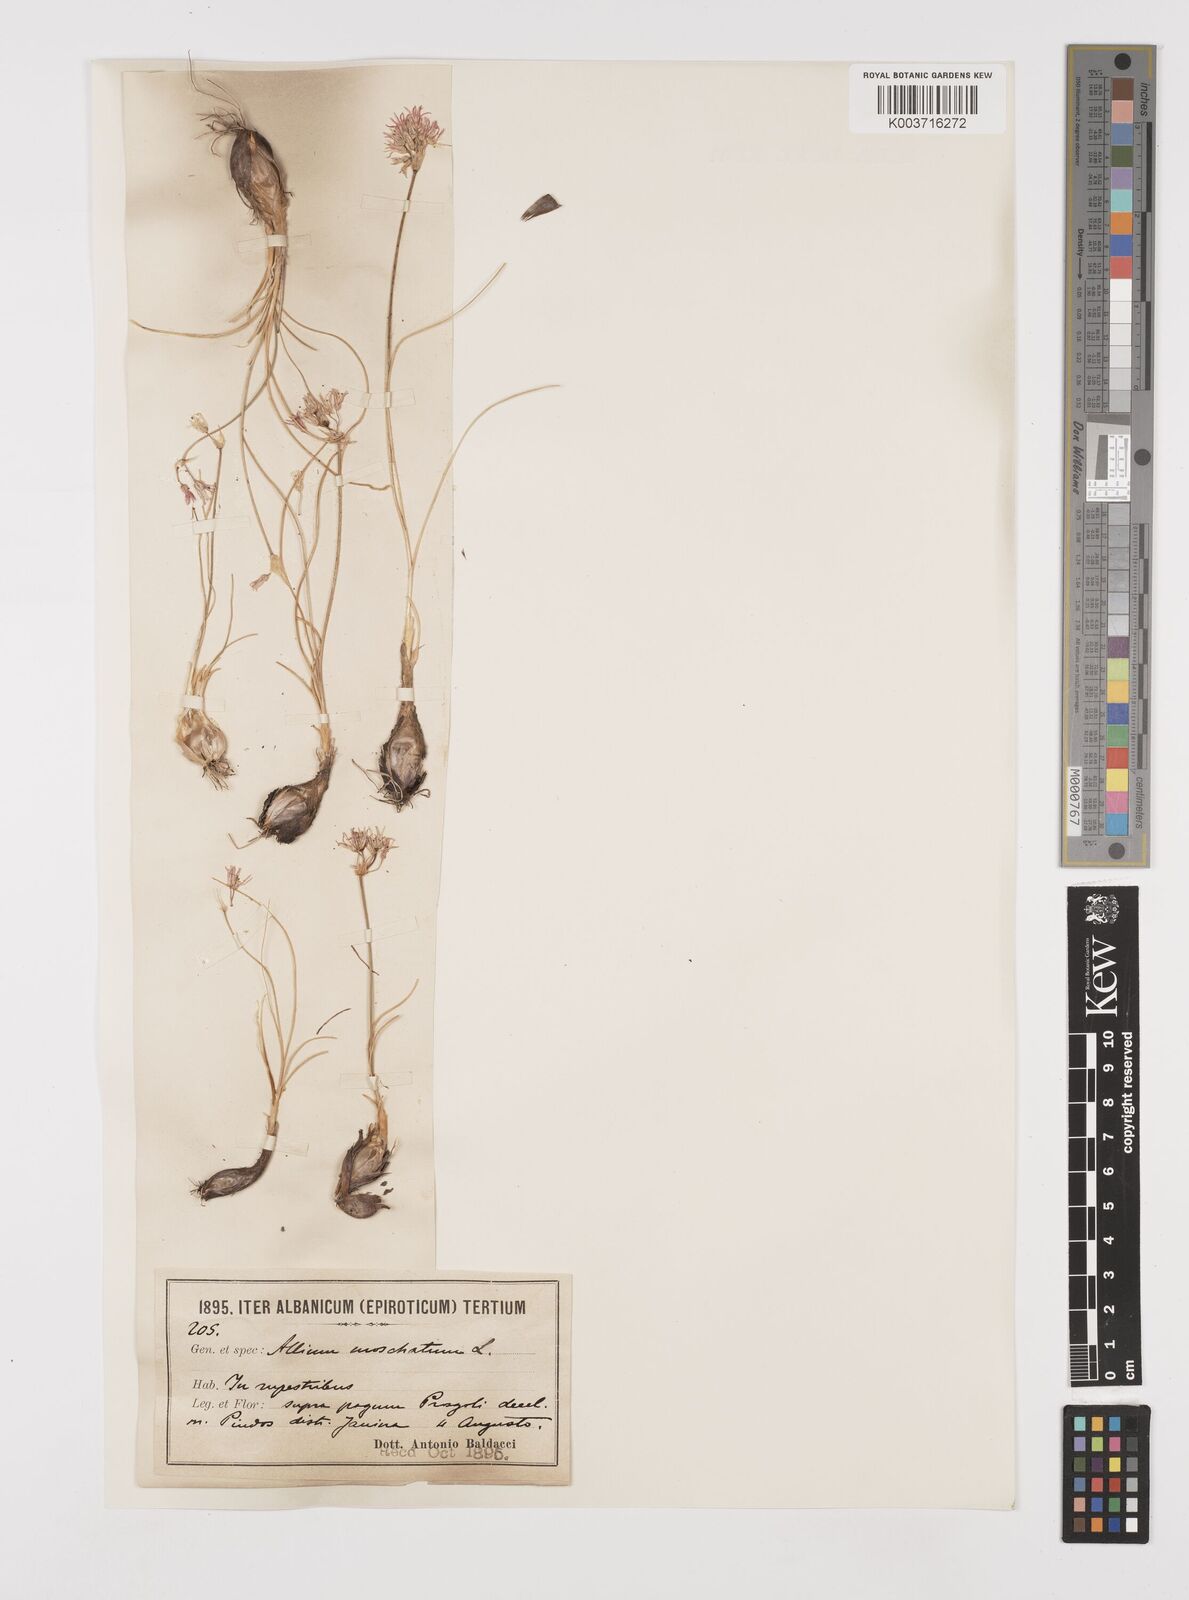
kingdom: Plantae
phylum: Tracheophyta
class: Liliopsida
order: Asparagales
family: Amaryllidaceae
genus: Allium
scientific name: Allium moschatum
